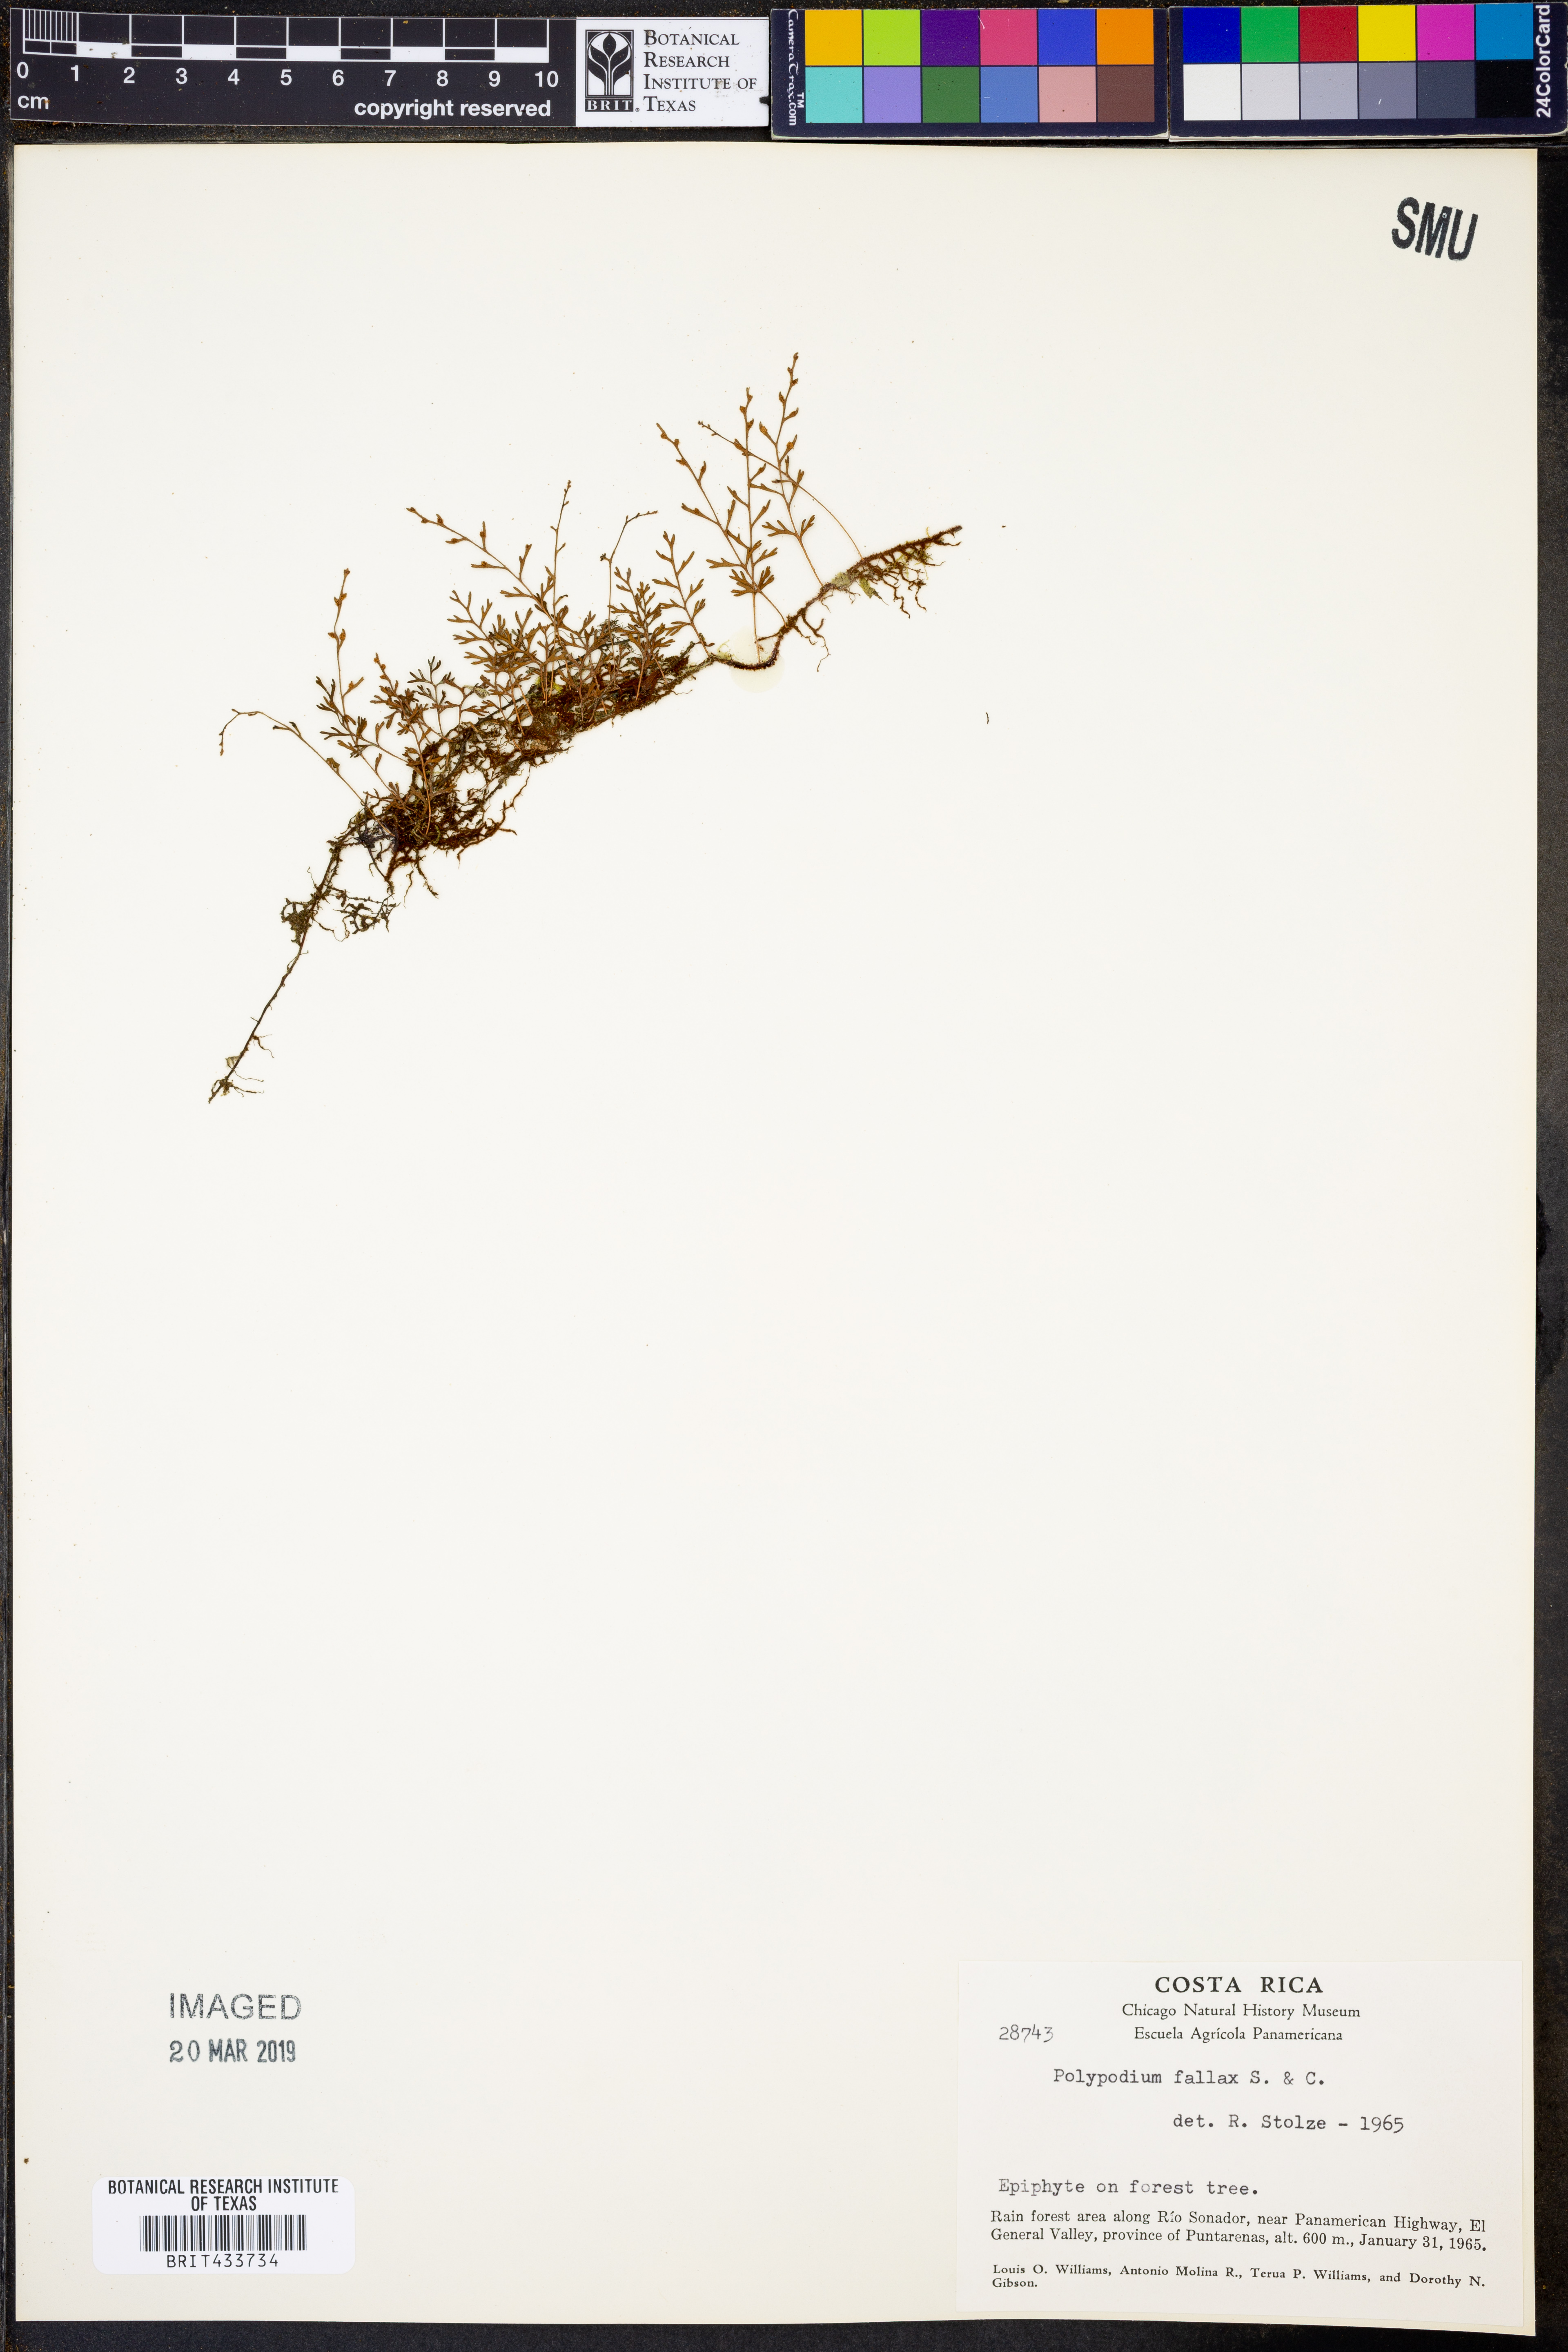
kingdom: Plantae
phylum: Tracheophyta
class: Polypodiopsida
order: Polypodiales
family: Polypodiaceae
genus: Pleopeltis
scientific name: Pleopeltis fallax
